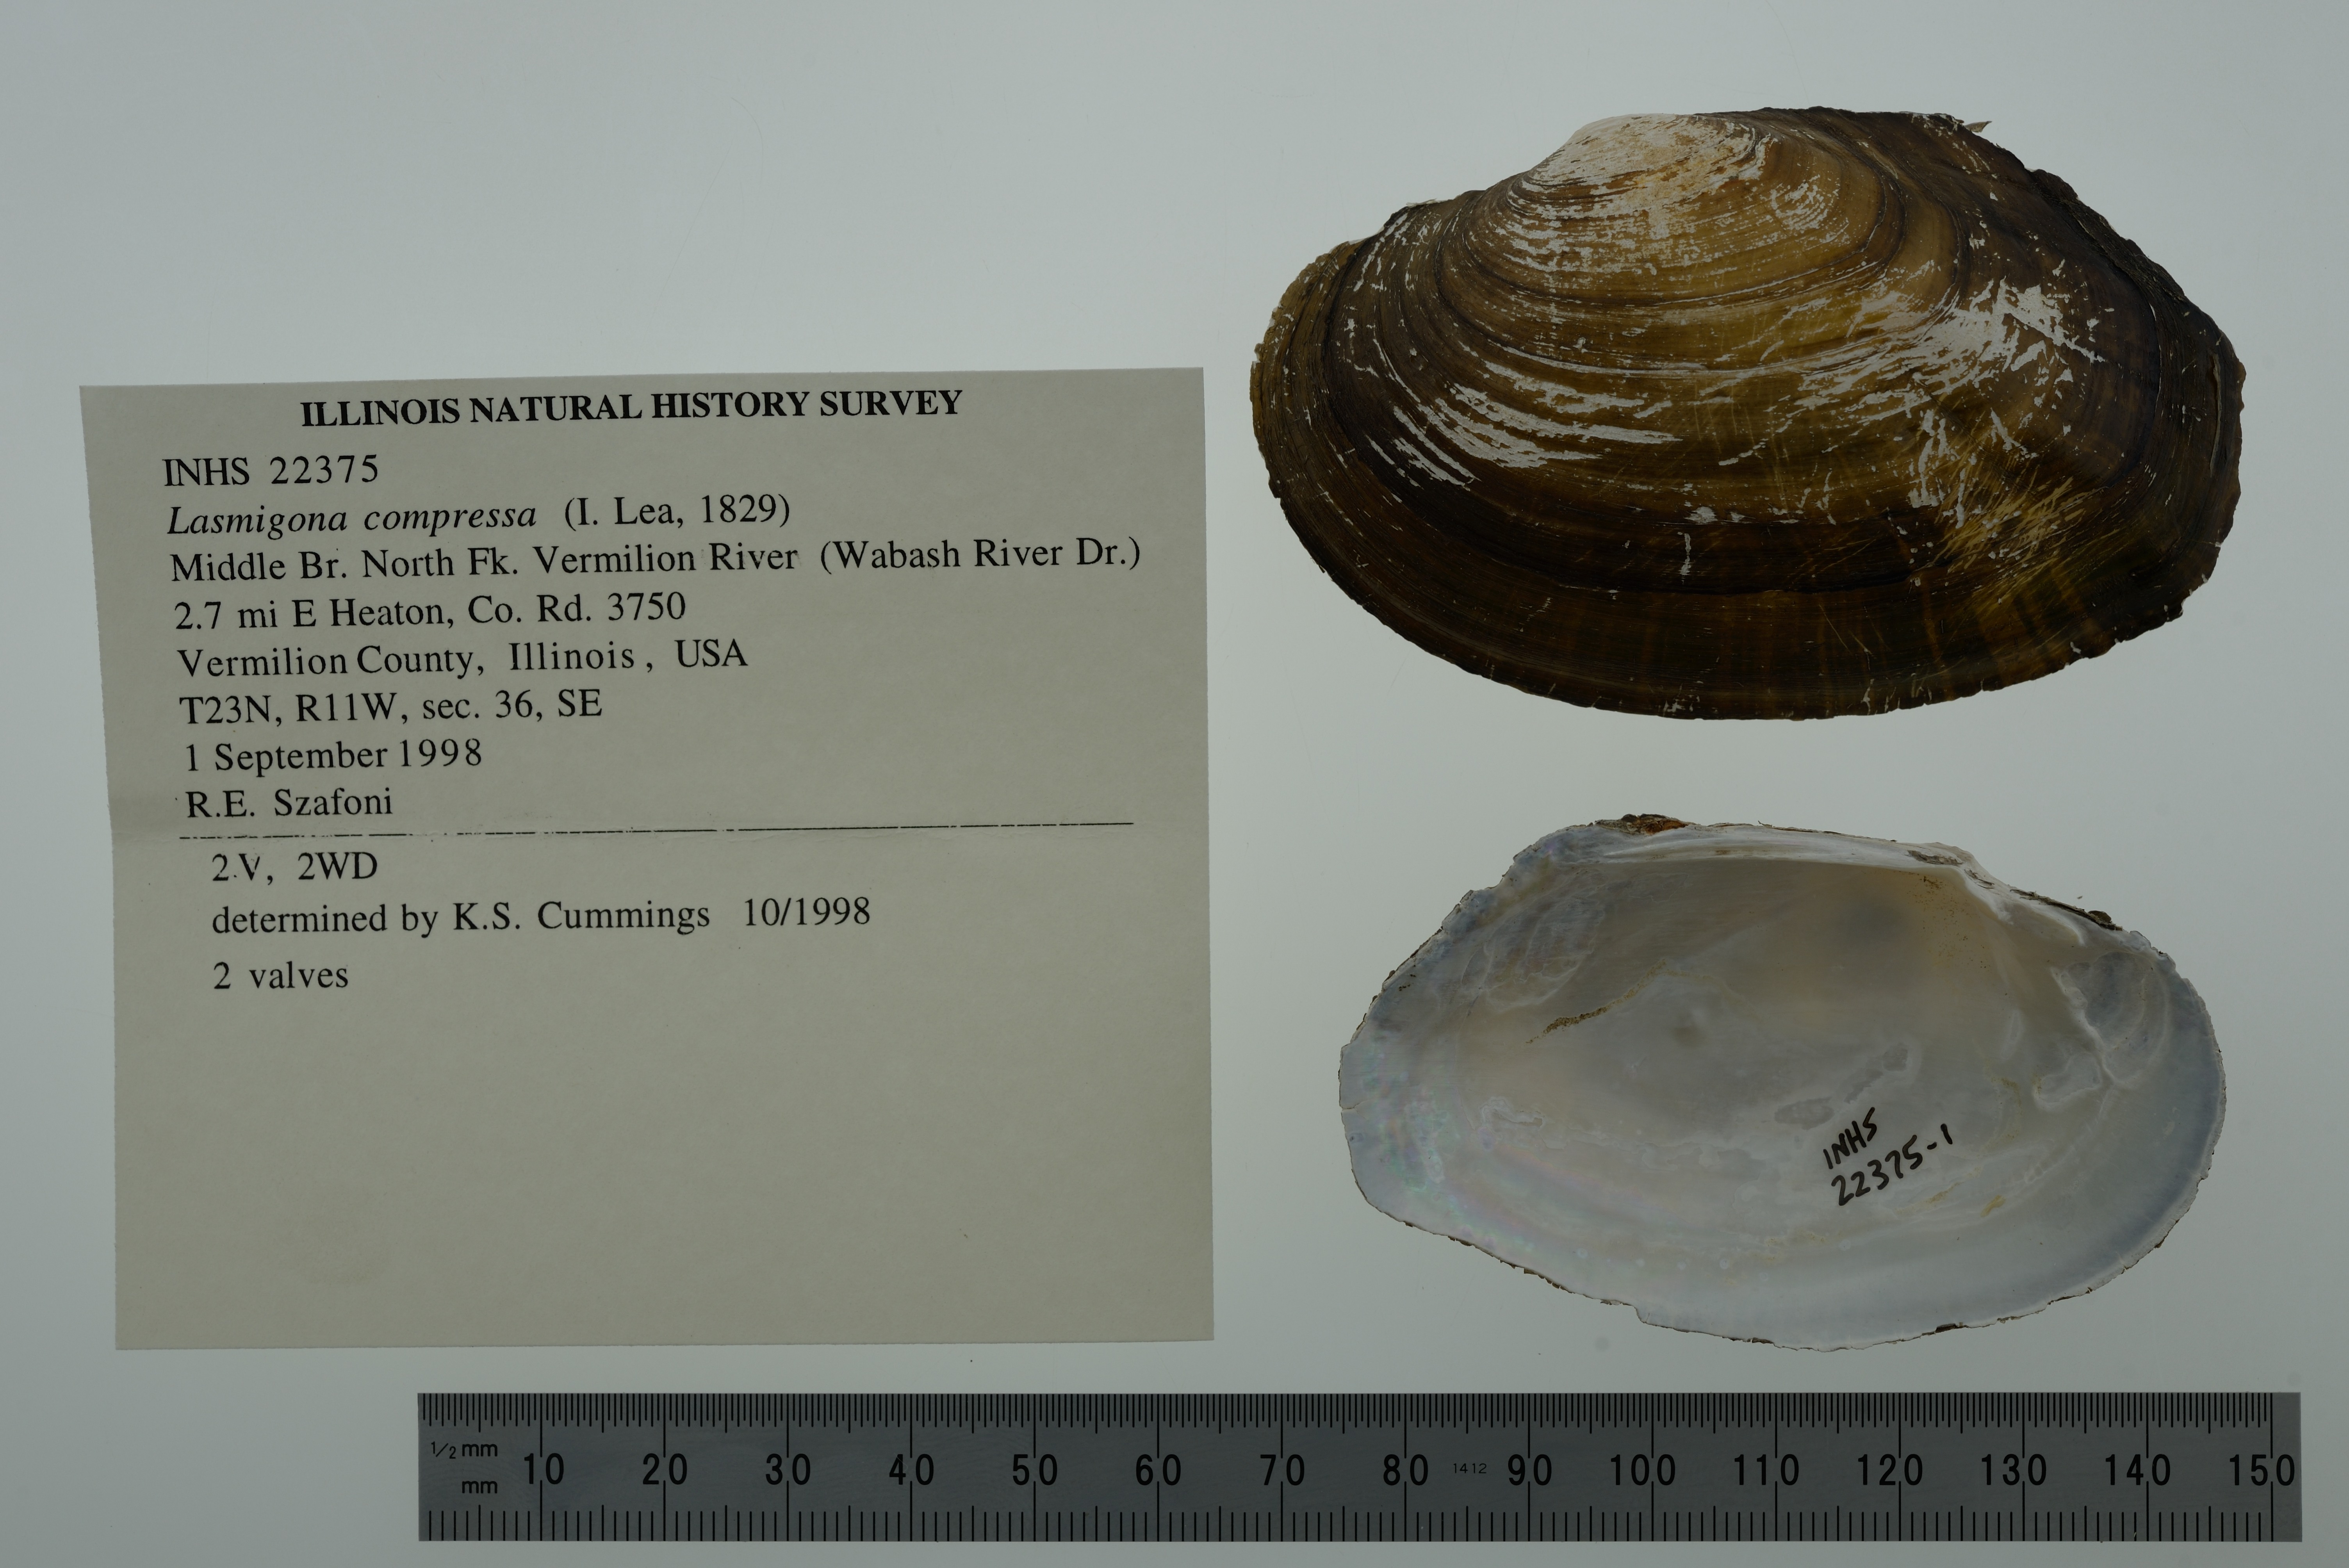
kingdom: Animalia
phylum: Mollusca
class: Bivalvia
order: Unionida
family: Unionidae
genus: Lasmigona
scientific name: Lasmigona compressa
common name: Creek heelsplitter
